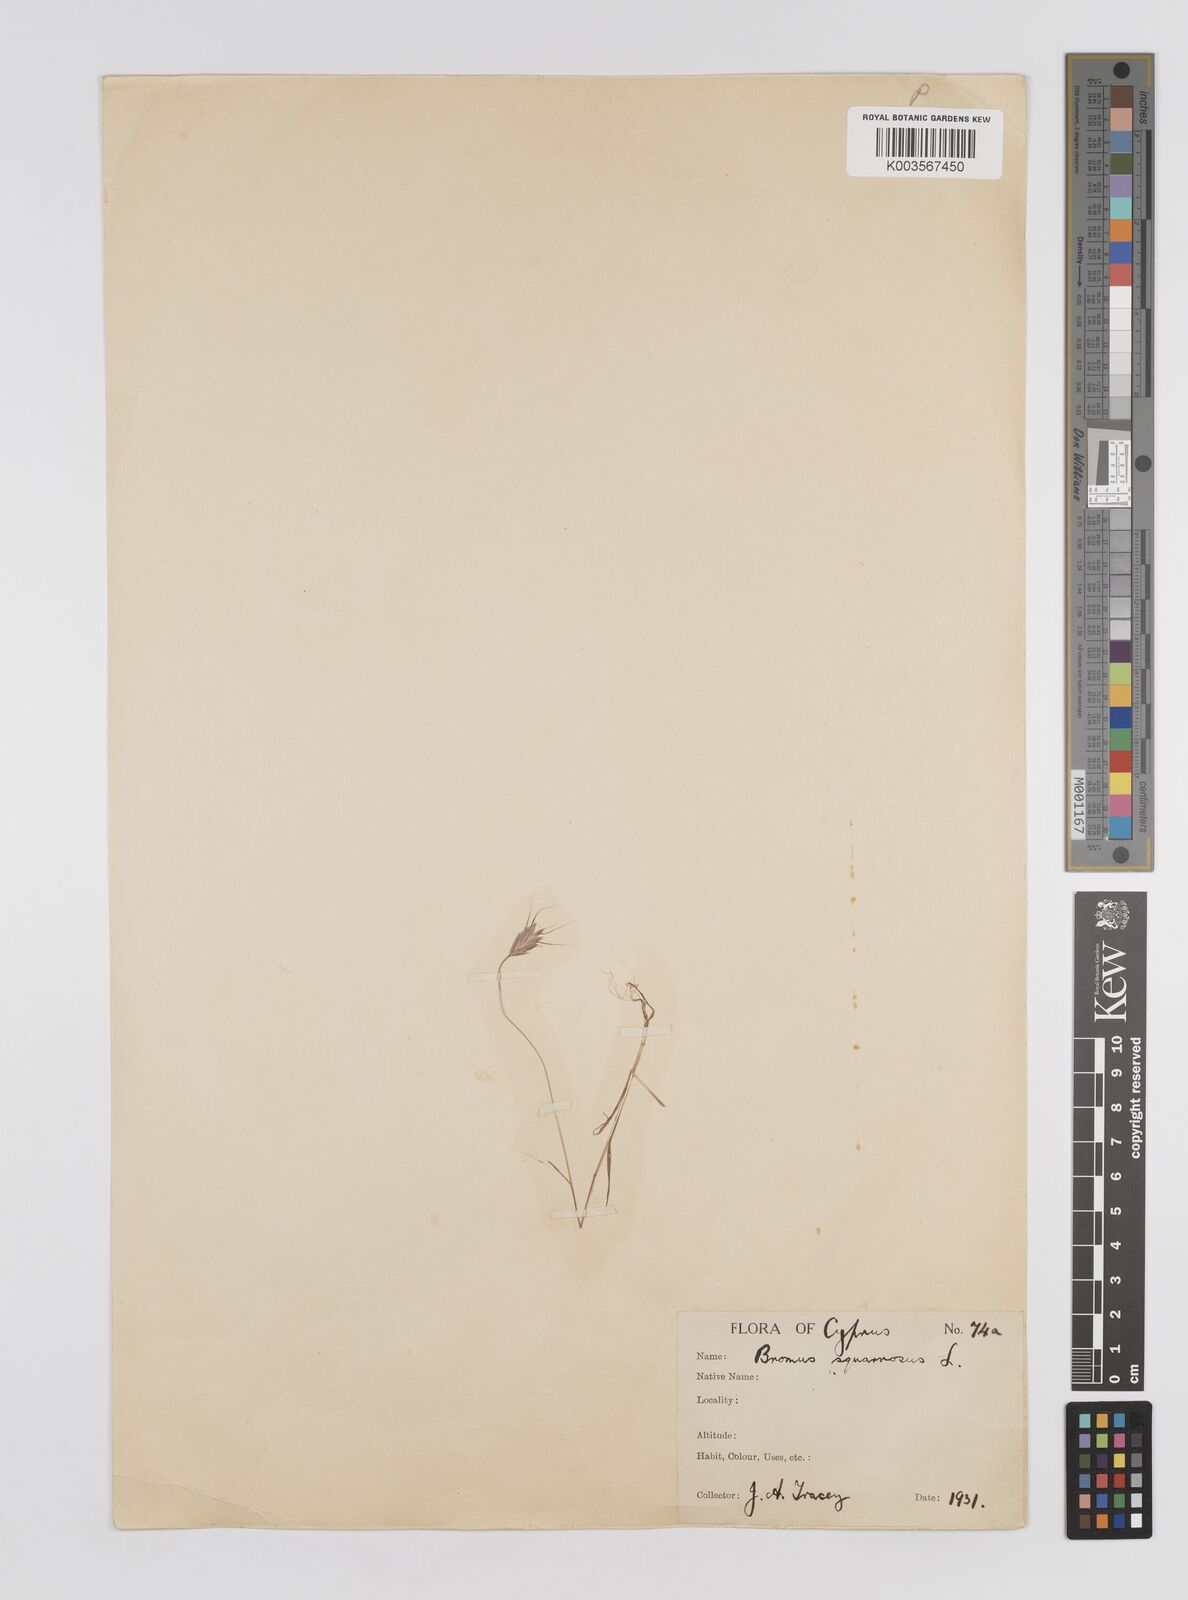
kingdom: Plantae
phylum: Tracheophyta
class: Liliopsida
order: Poales
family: Poaceae
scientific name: Poaceae
